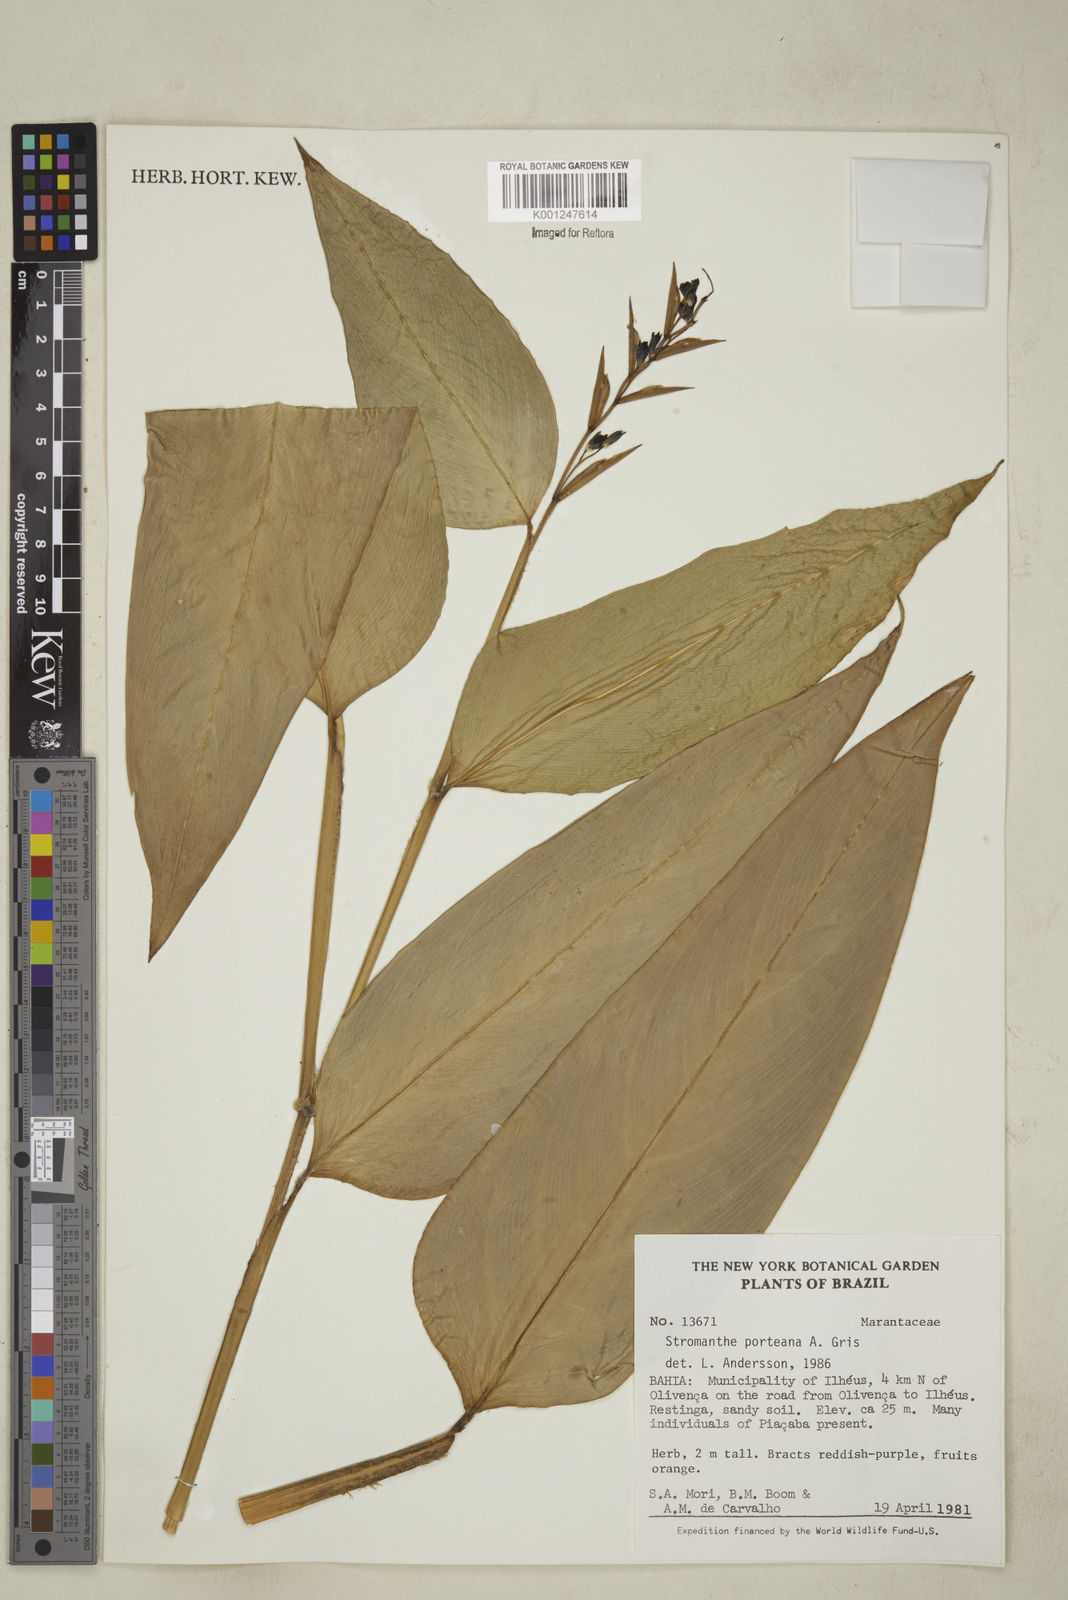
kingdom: Plantae
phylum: Tracheophyta
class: Liliopsida
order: Zingiberales
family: Marantaceae
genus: Stromanthe
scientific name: Stromanthe porteana
